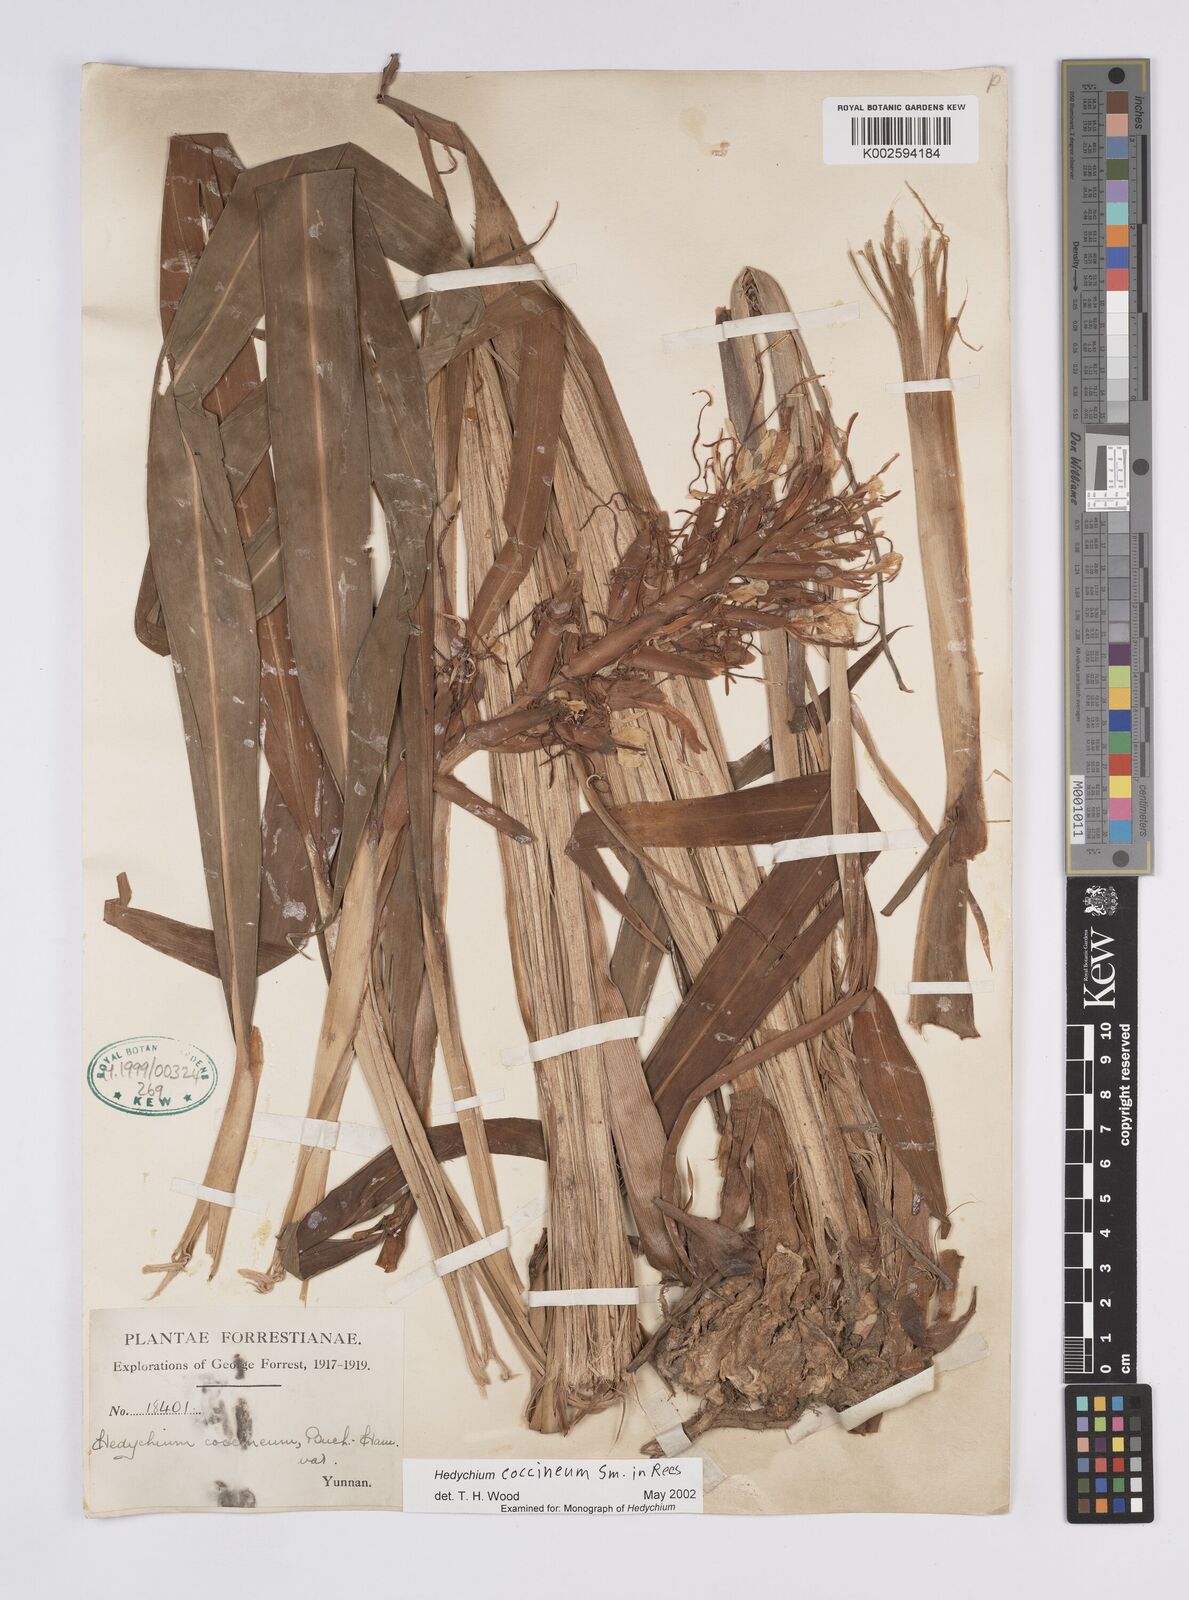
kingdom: Plantae
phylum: Tracheophyta
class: Liliopsida
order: Zingiberales
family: Zingiberaceae
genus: Hedychium
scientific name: Hedychium coccineum
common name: Red ginger-lily
